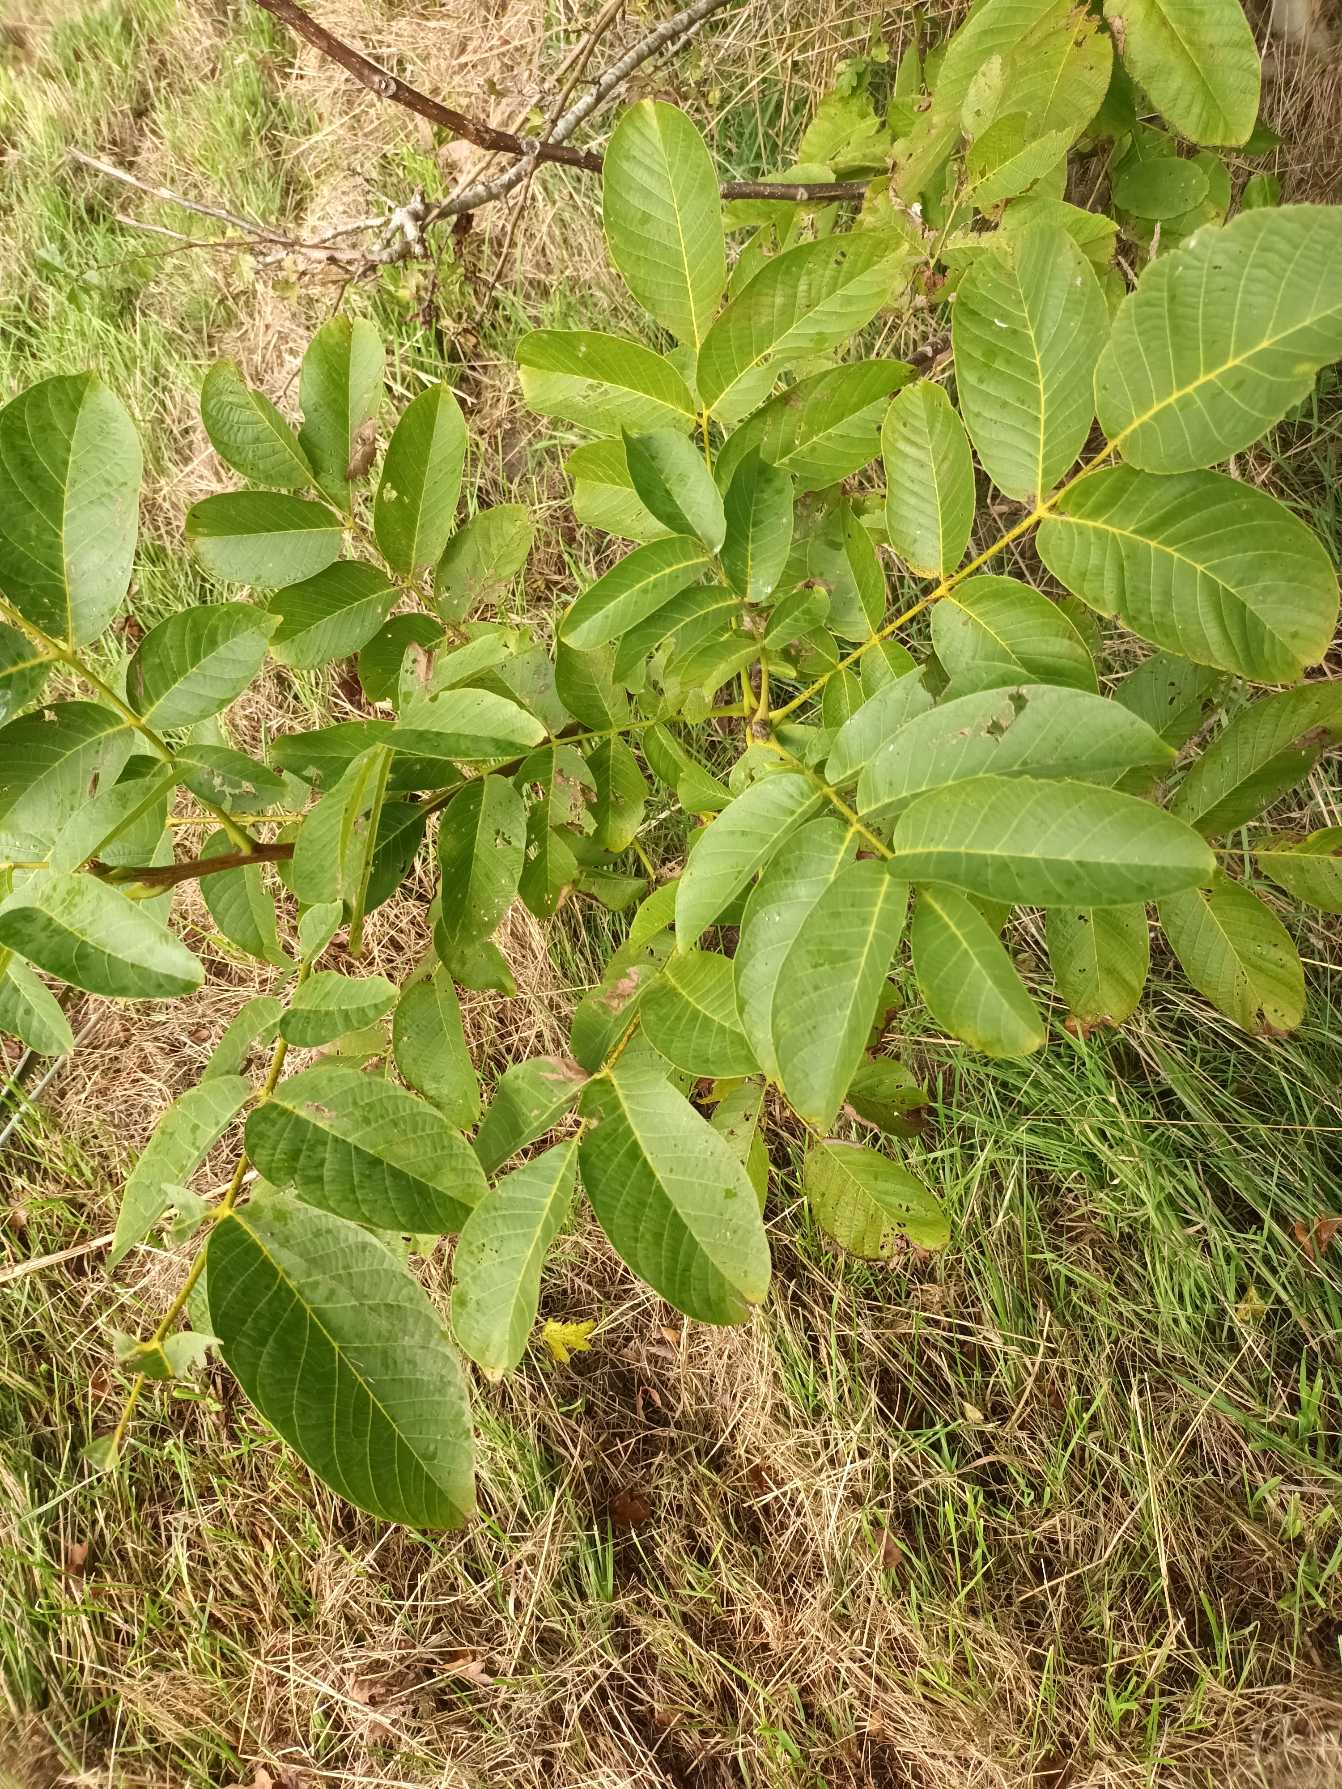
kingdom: Plantae
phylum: Tracheophyta
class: Magnoliopsida
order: Fagales
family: Juglandaceae
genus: Juglans
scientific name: Juglans regia
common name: Almindelig valnød
